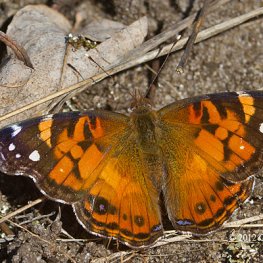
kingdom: Animalia
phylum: Arthropoda
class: Insecta
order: Lepidoptera
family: Nymphalidae
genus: Vanessa
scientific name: Vanessa virginiensis
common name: American Lady
